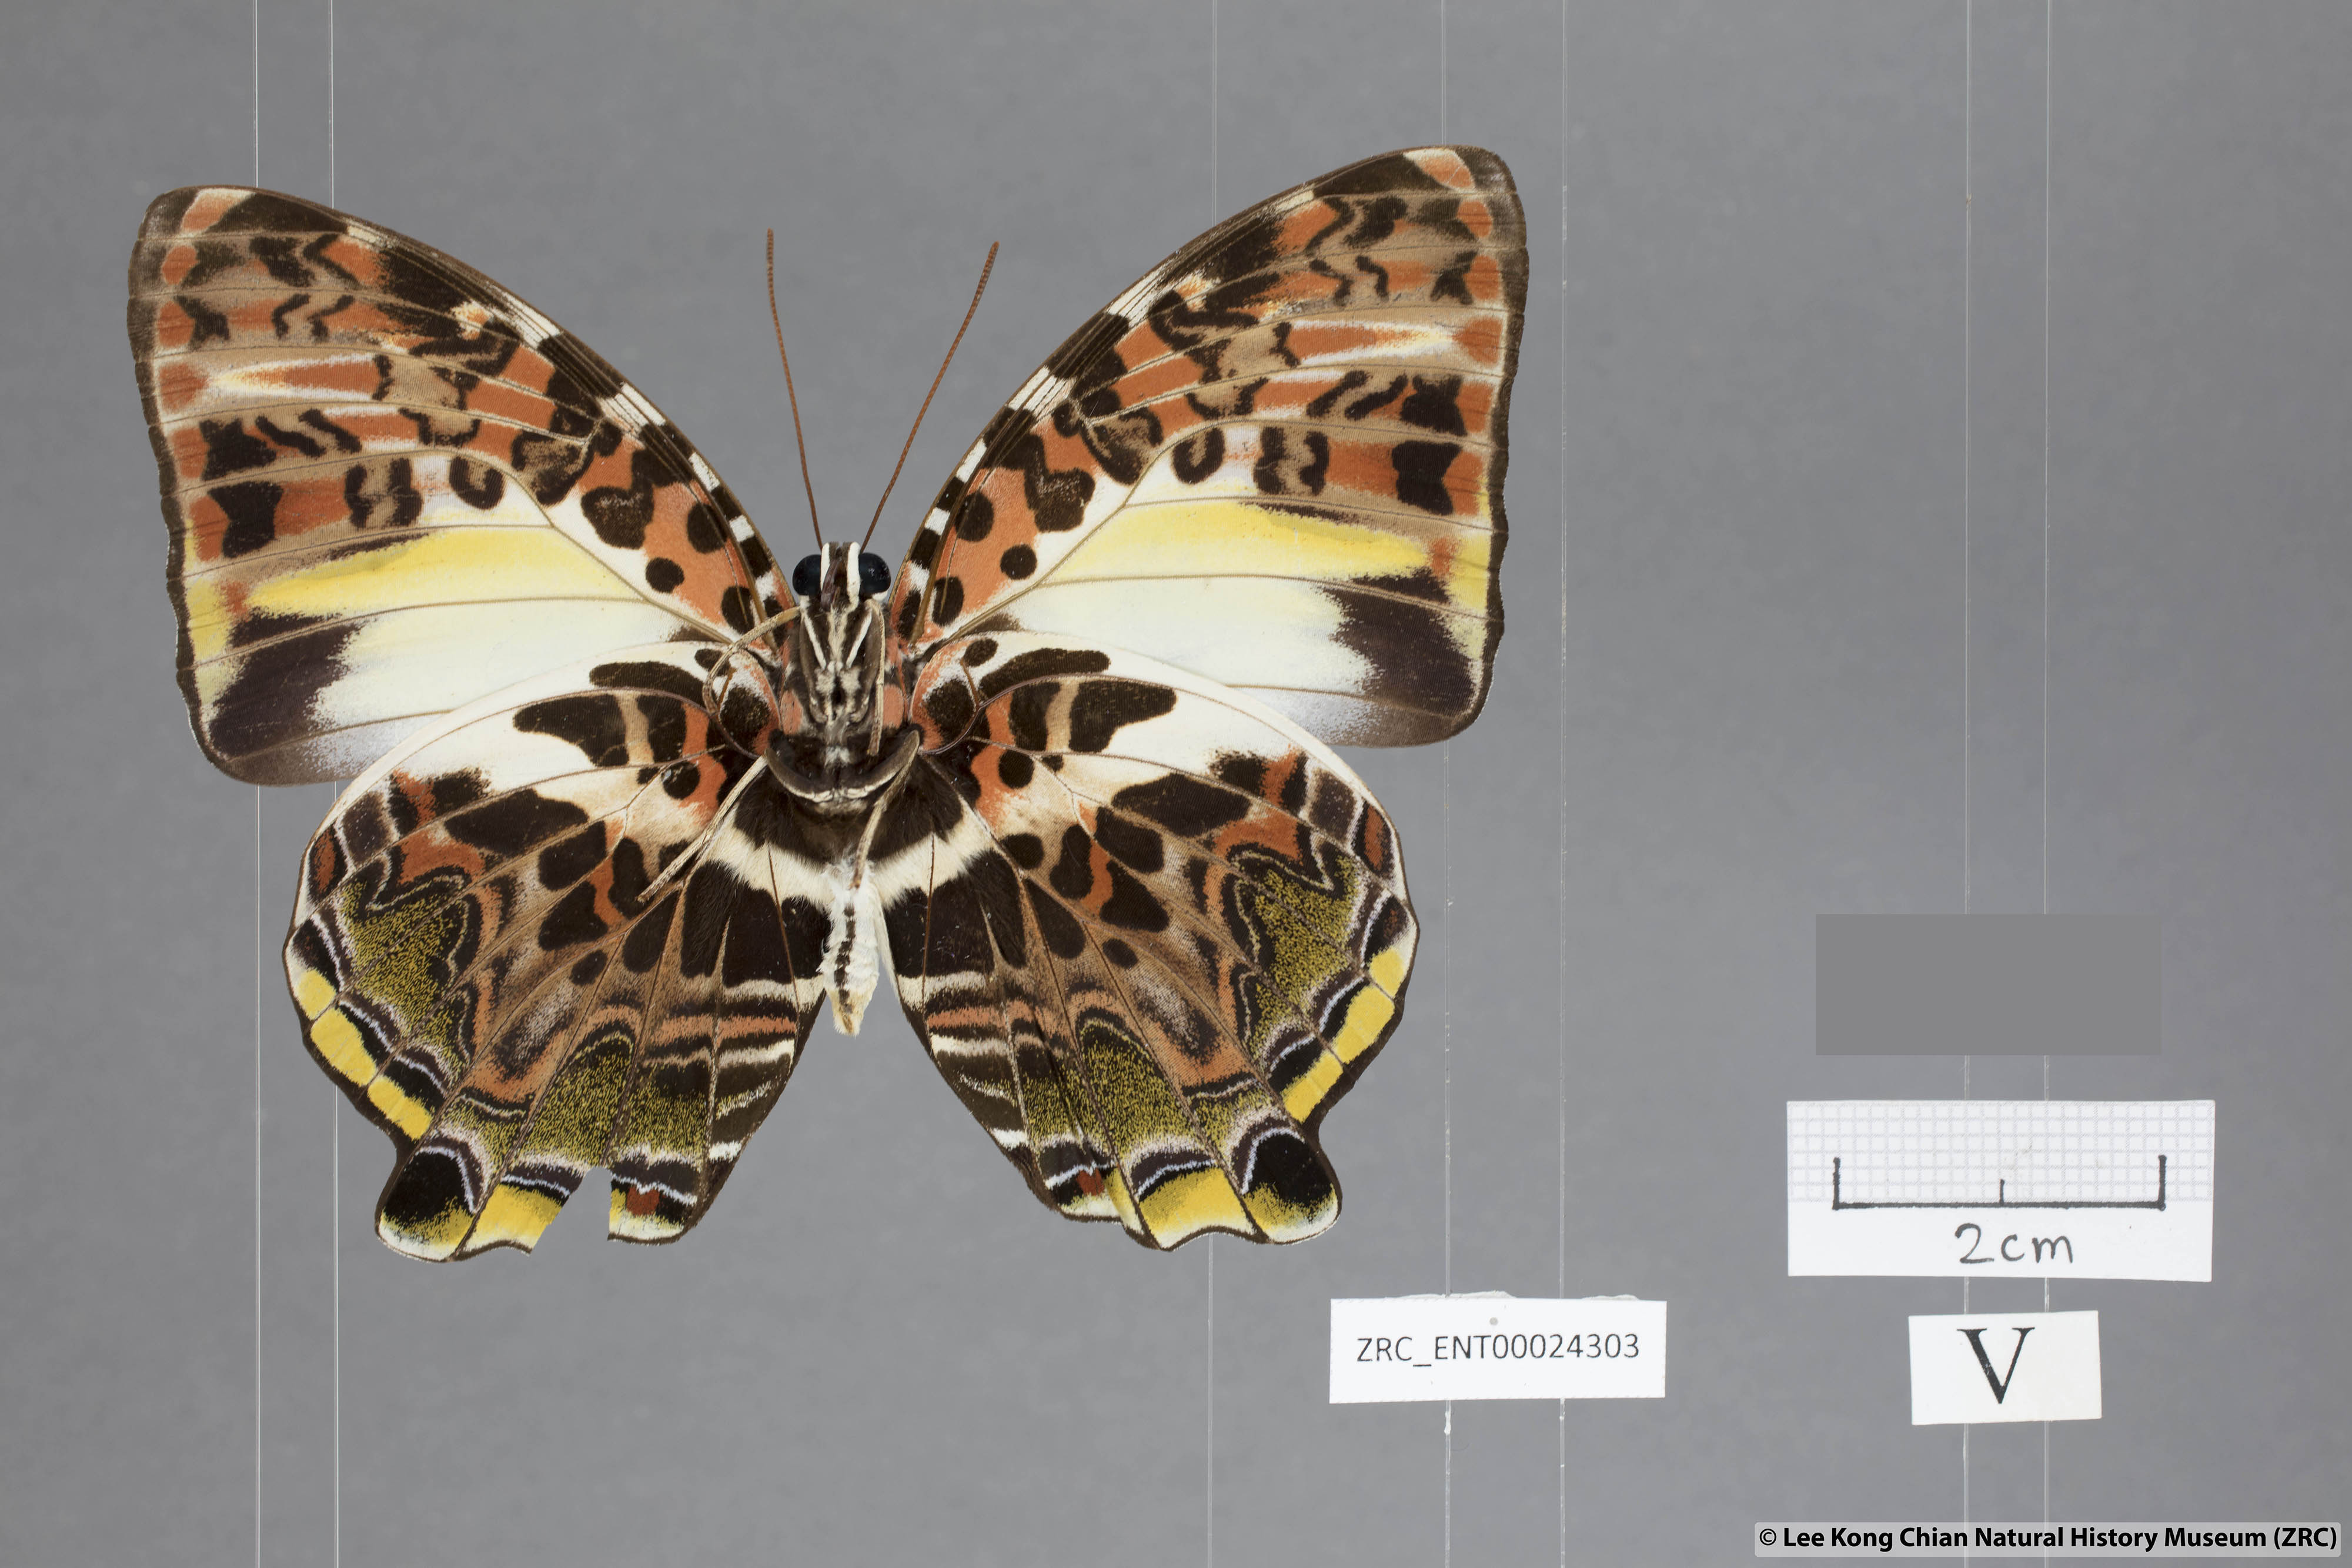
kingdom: Animalia
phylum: Arthropoda
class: Insecta
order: Lepidoptera
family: Nymphalidae
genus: Prothoe
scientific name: Prothoe Agatasa calydonia
